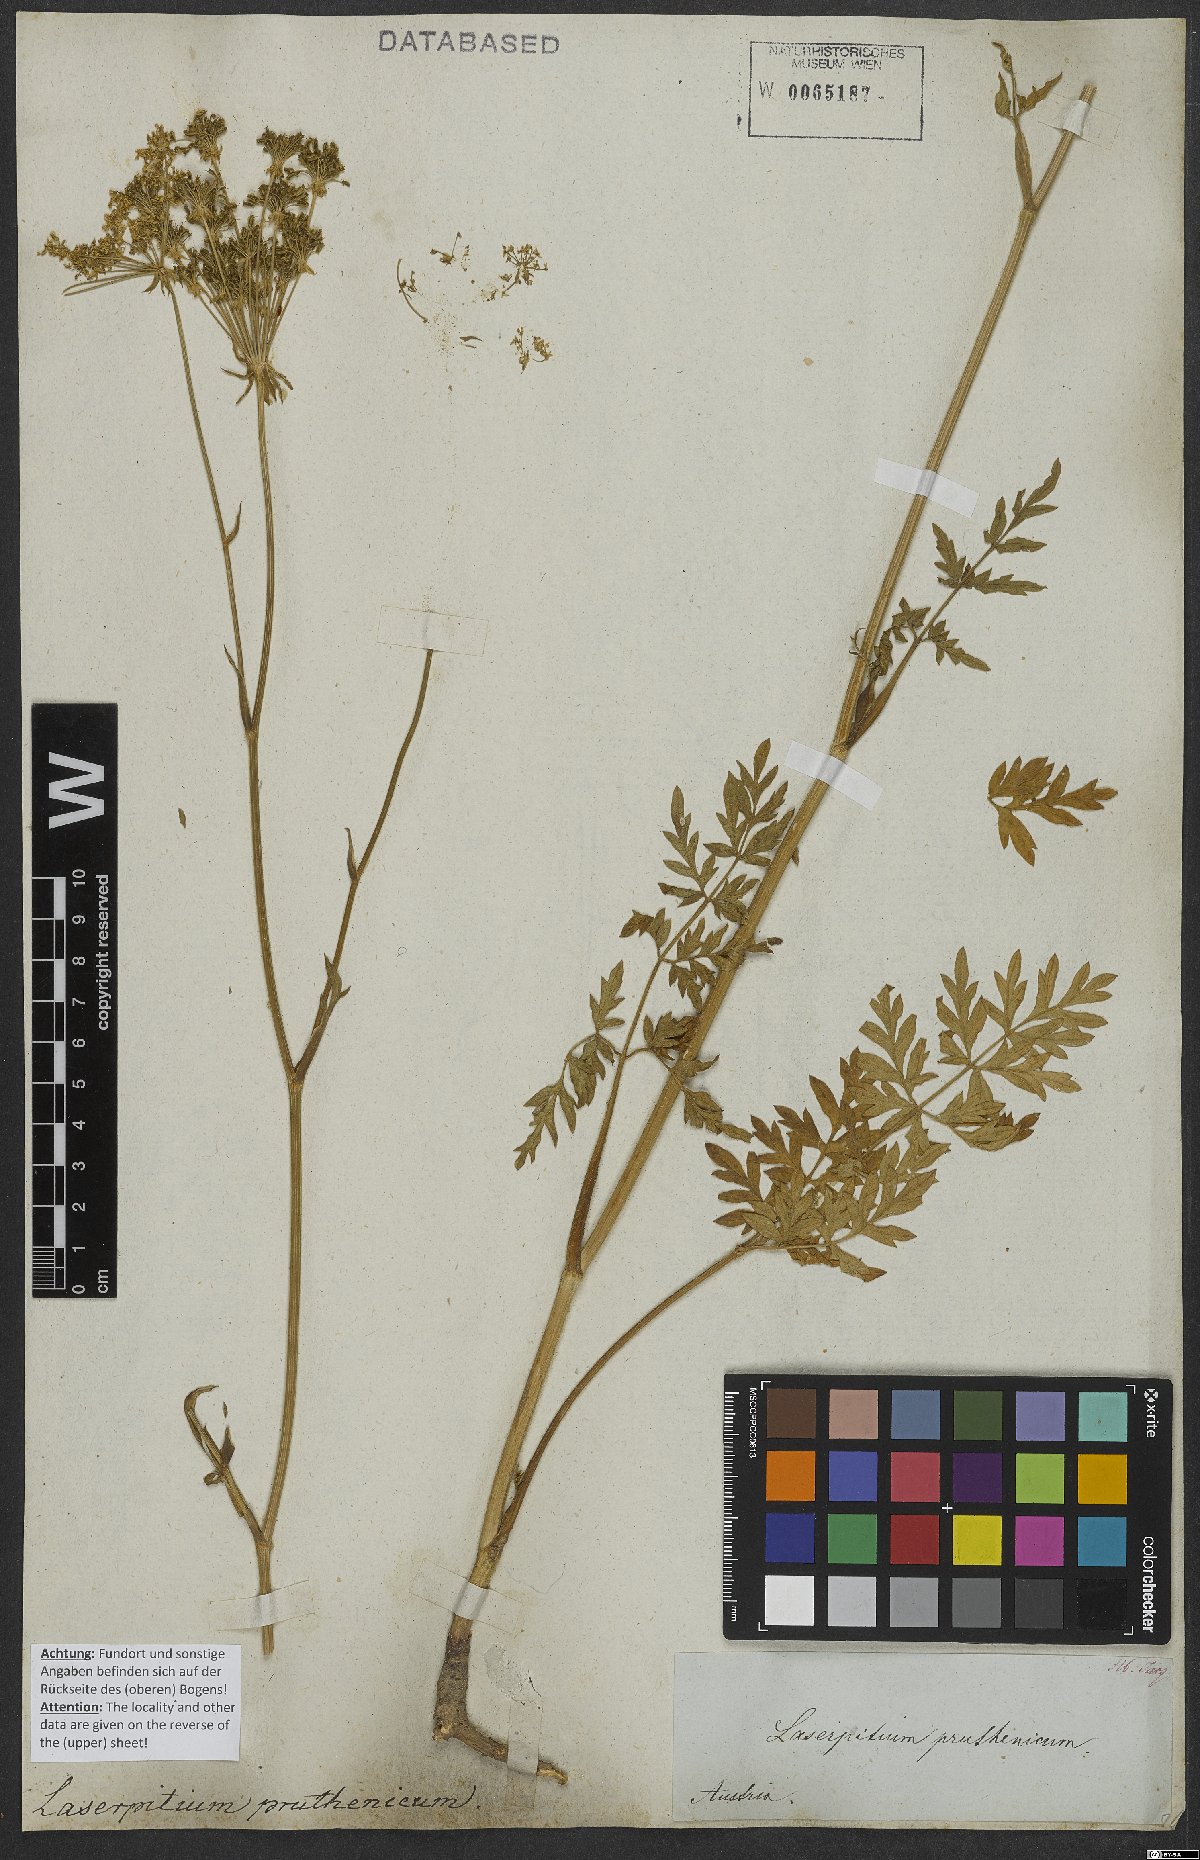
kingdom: Plantae
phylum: Tracheophyta
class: Magnoliopsida
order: Apiales
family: Apiaceae
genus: Silphiodaucus
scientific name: Silphiodaucus prutenicus
